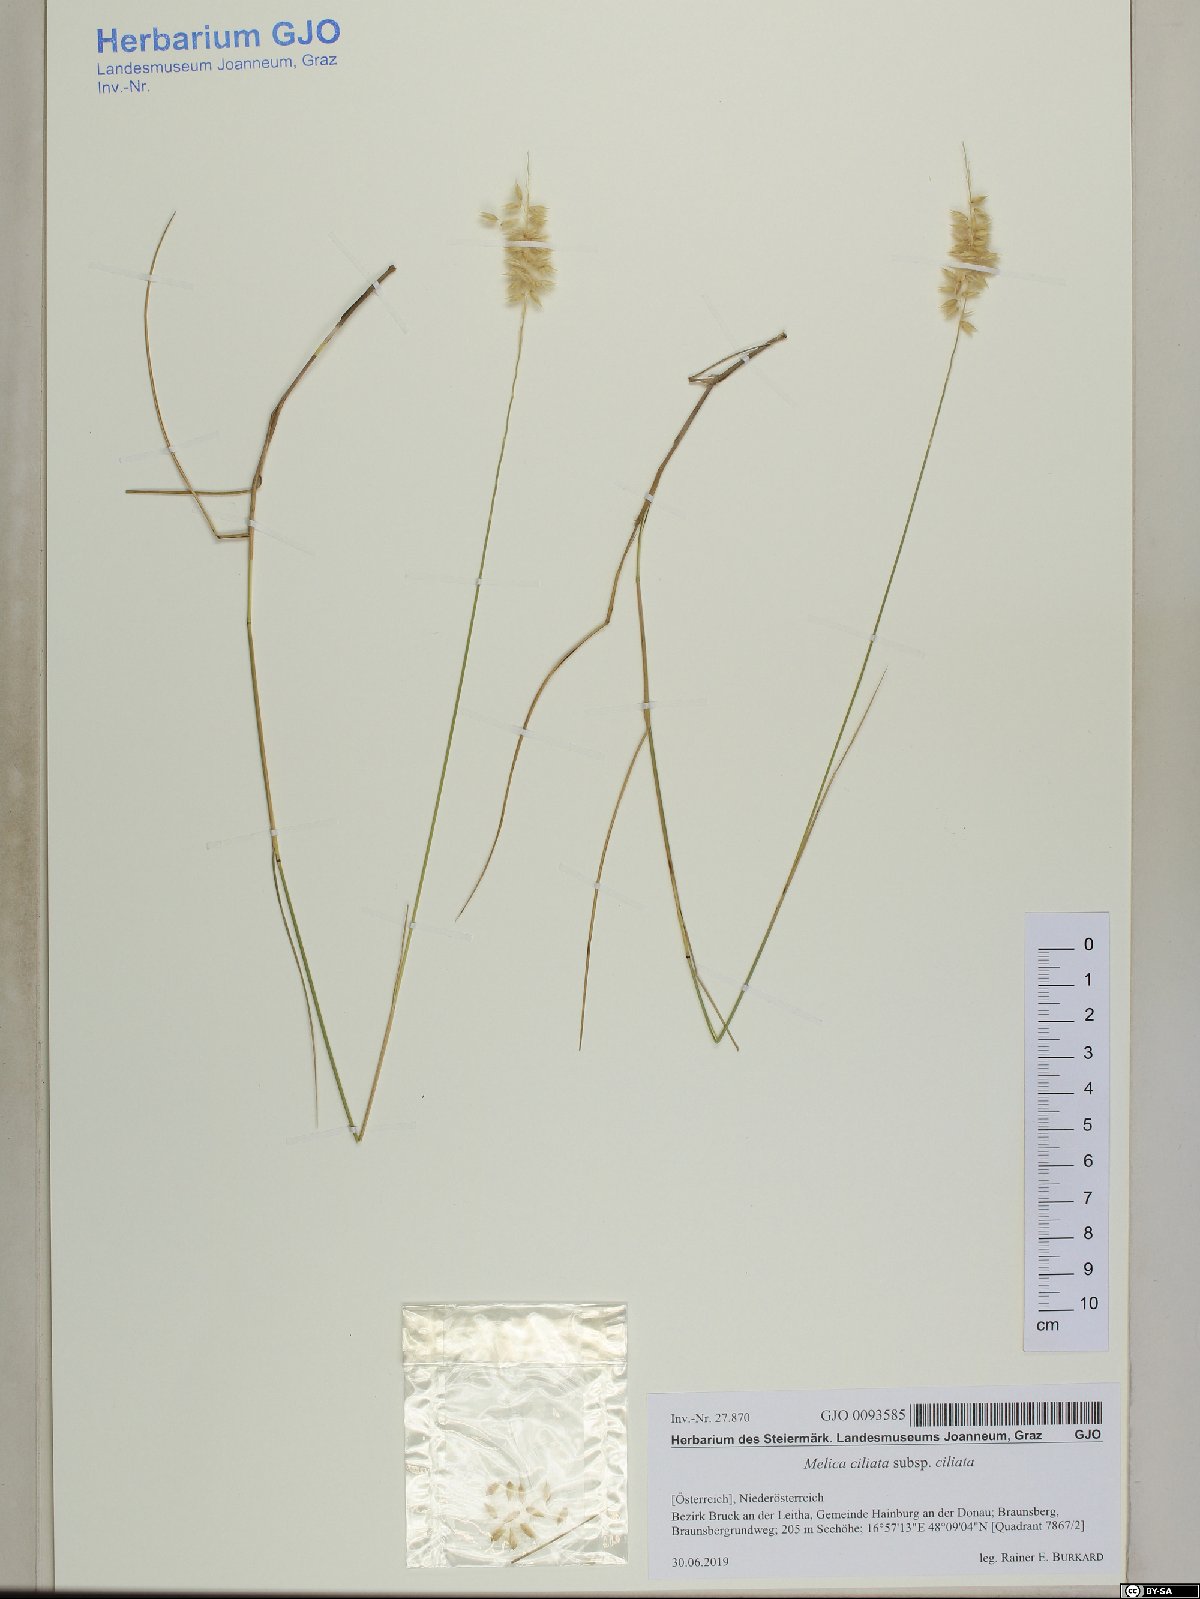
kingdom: Plantae
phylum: Tracheophyta
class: Liliopsida
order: Poales
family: Poaceae
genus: Melica
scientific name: Melica ciliata
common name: Hairy melicgrass
